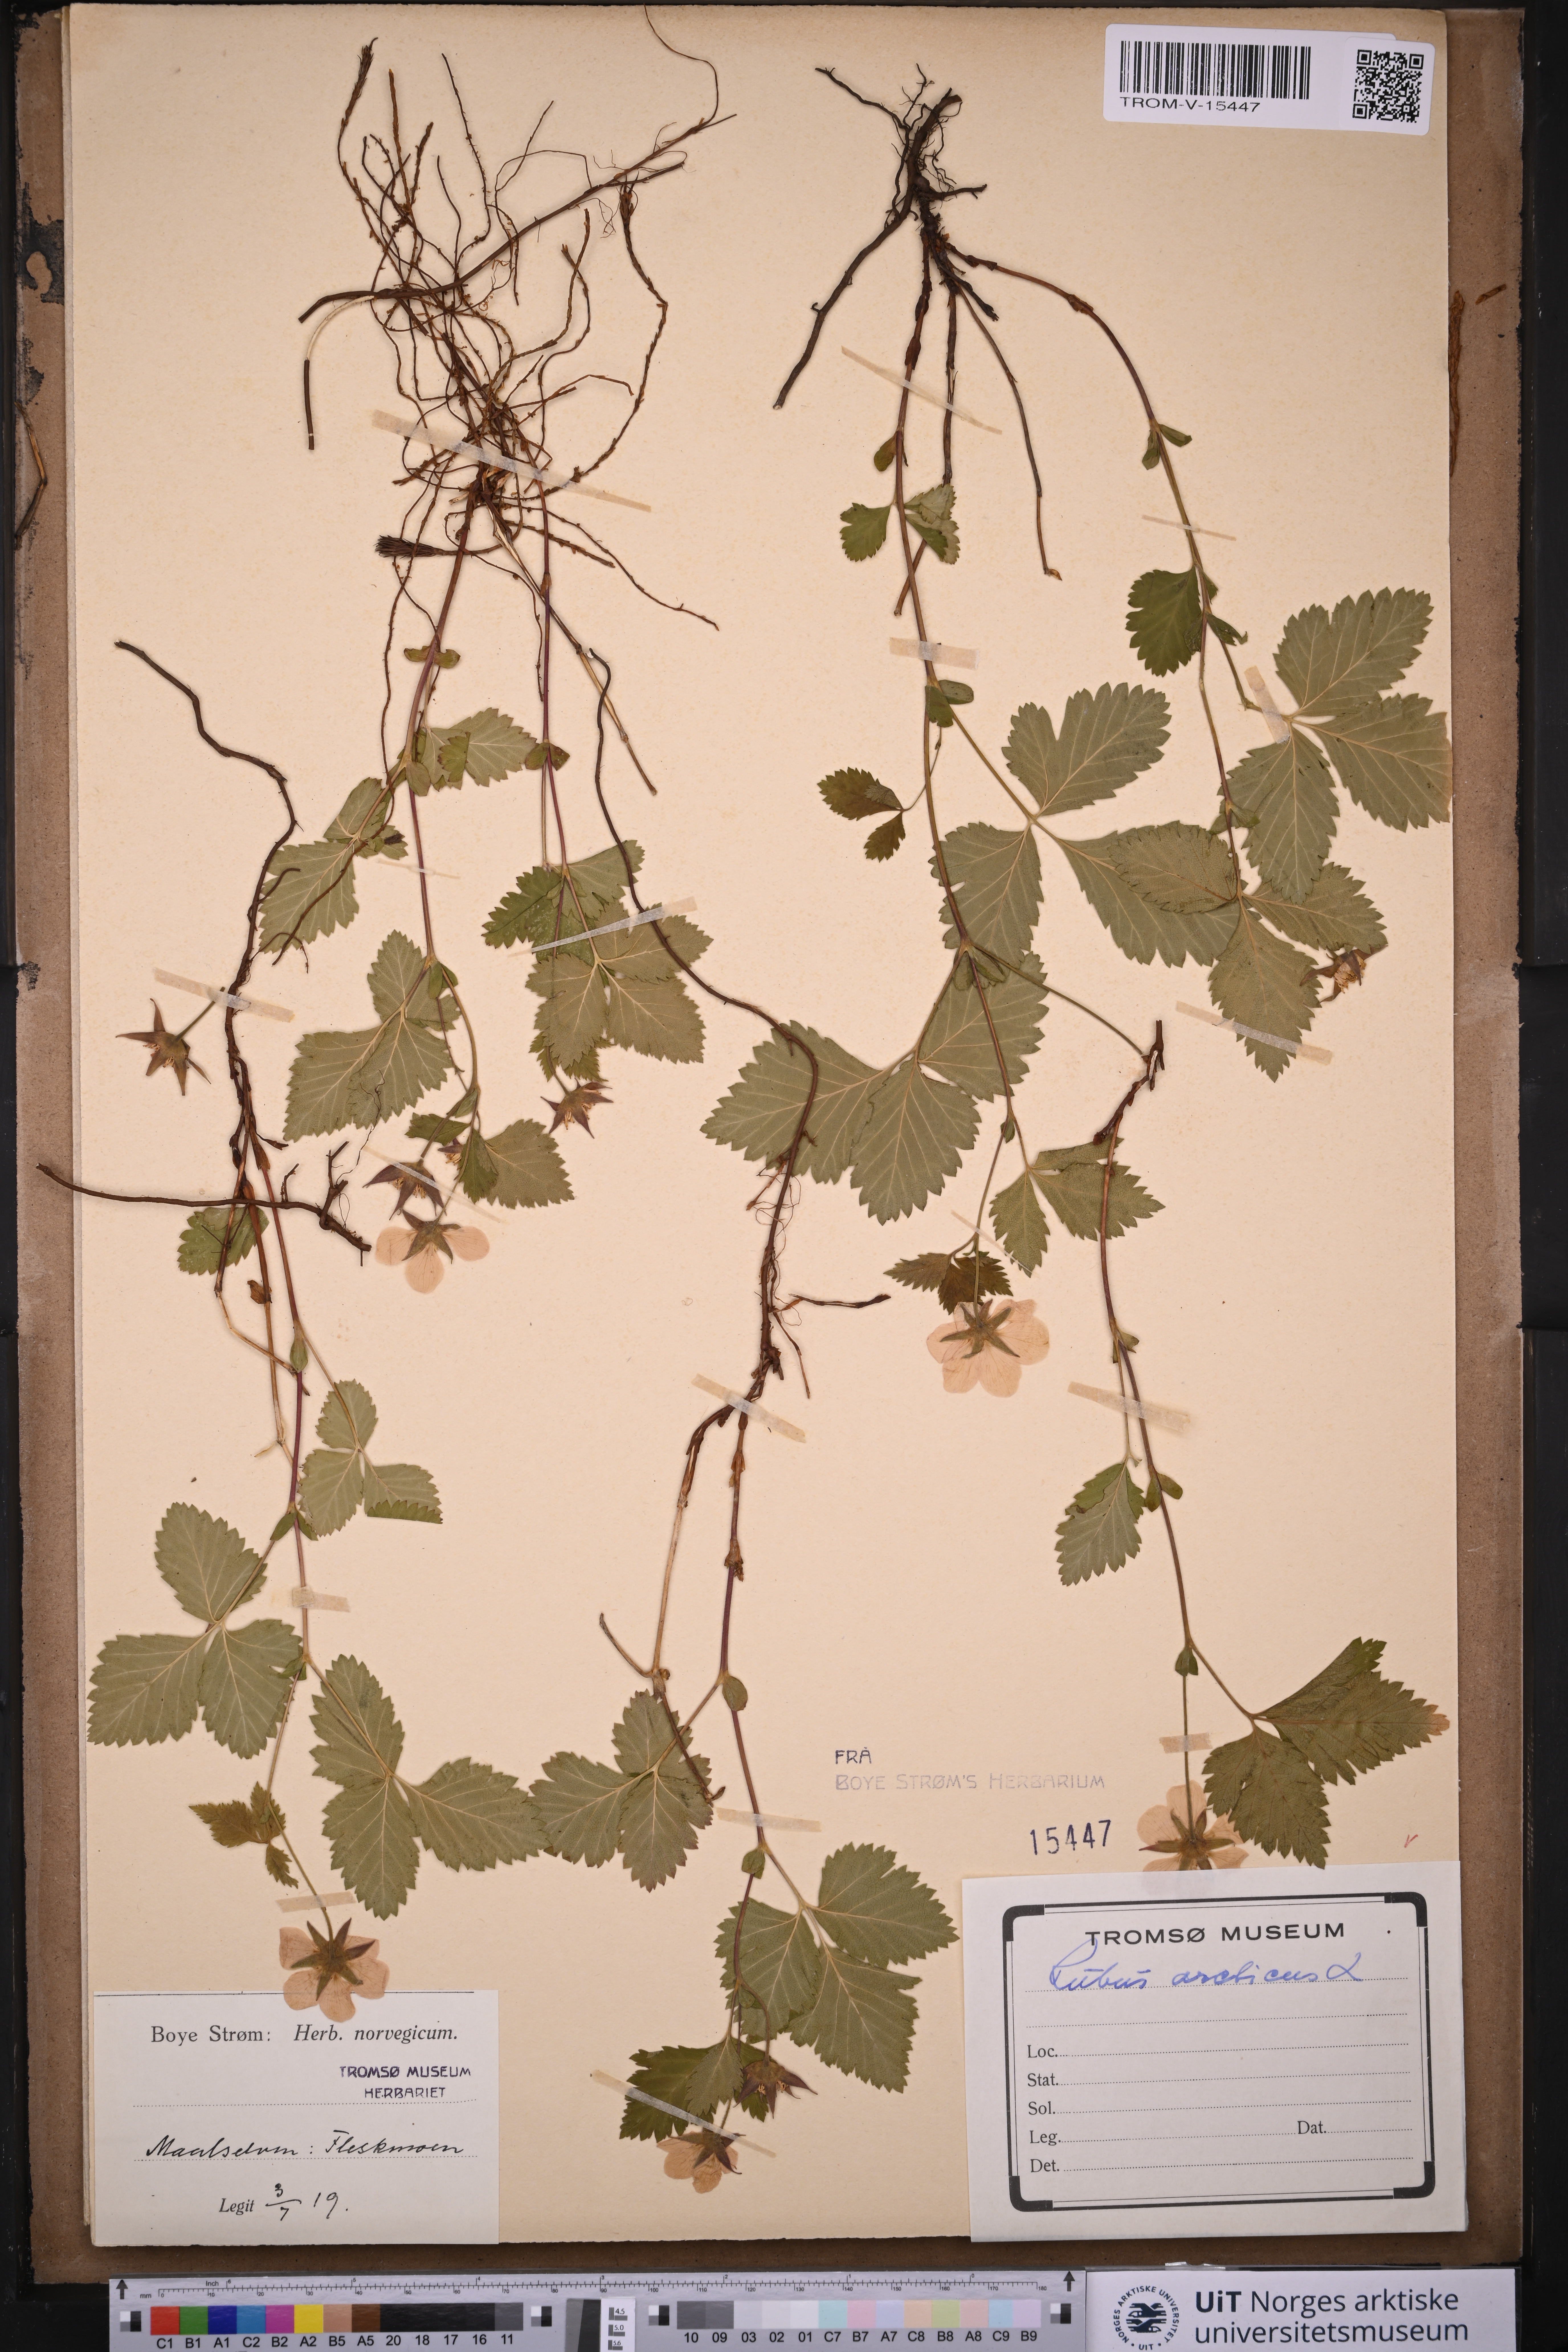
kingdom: Plantae
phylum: Tracheophyta
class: Magnoliopsida
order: Rosales
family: Rosaceae
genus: Rubus
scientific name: Rubus arcticus
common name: Arctic bramble
